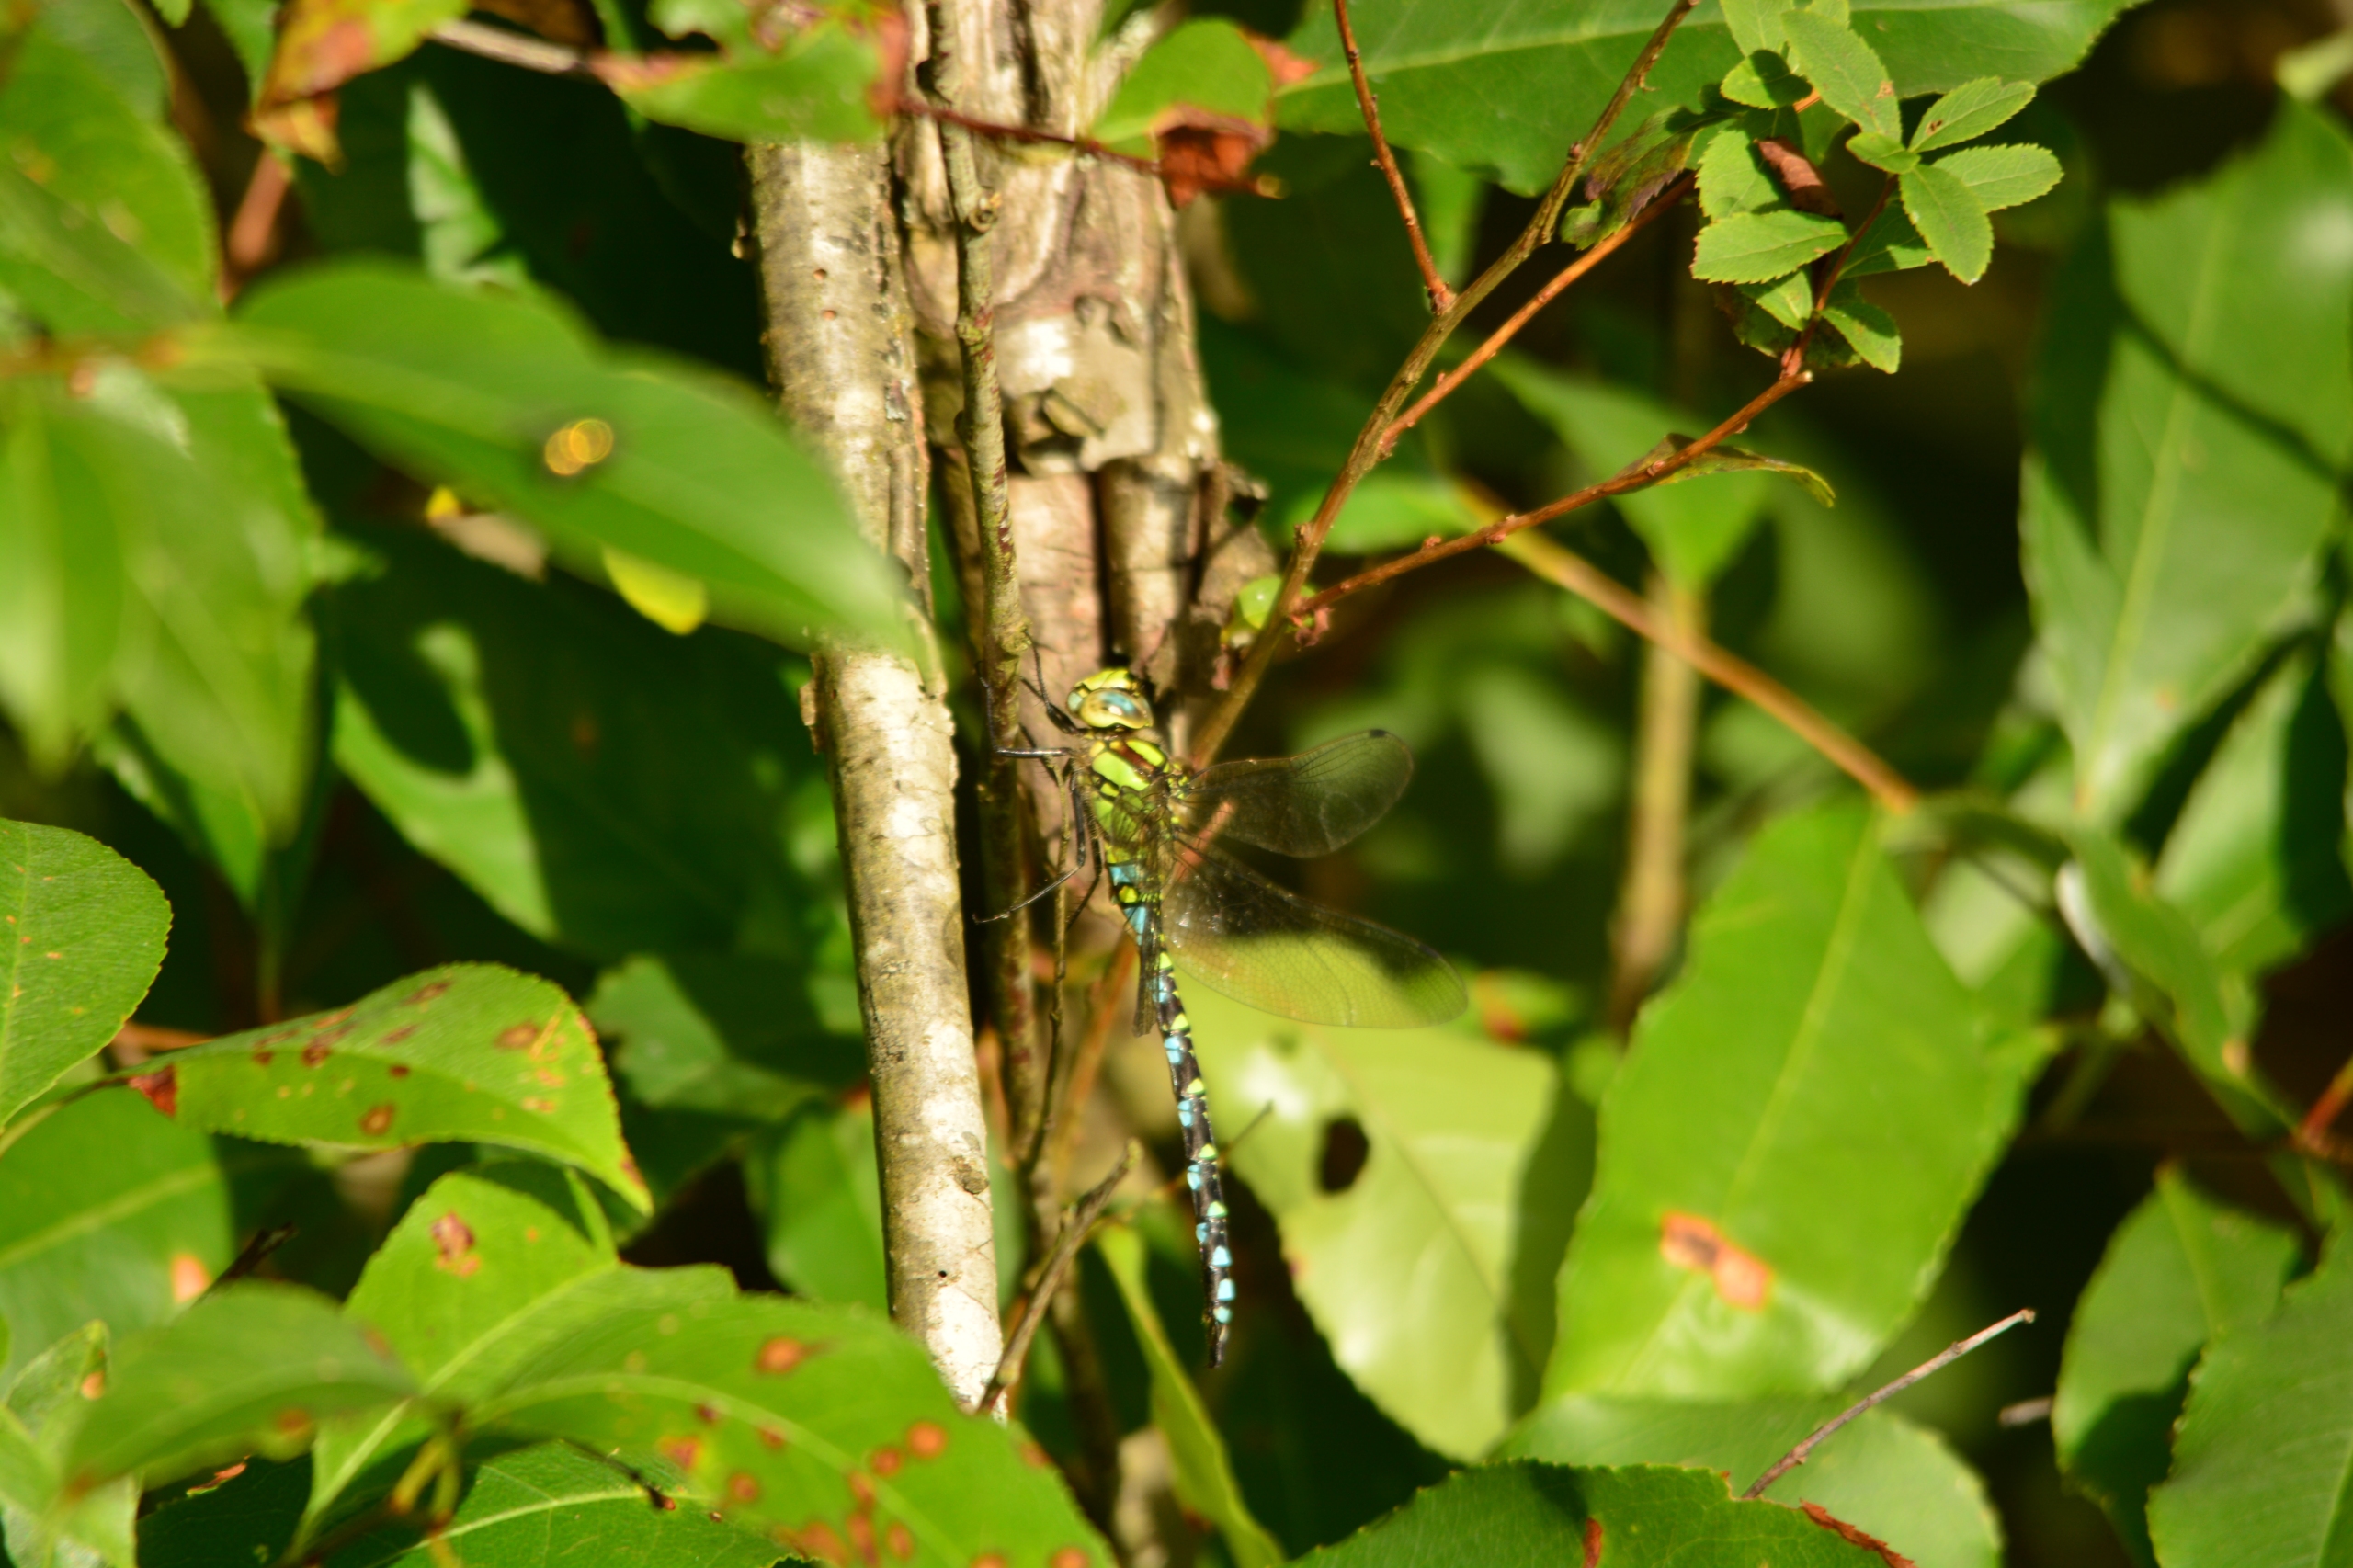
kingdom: Animalia
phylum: Arthropoda
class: Insecta
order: Odonata
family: Aeshnidae
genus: Aeshna
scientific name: Aeshna cyanea
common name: Blå mosaikguldsmed
